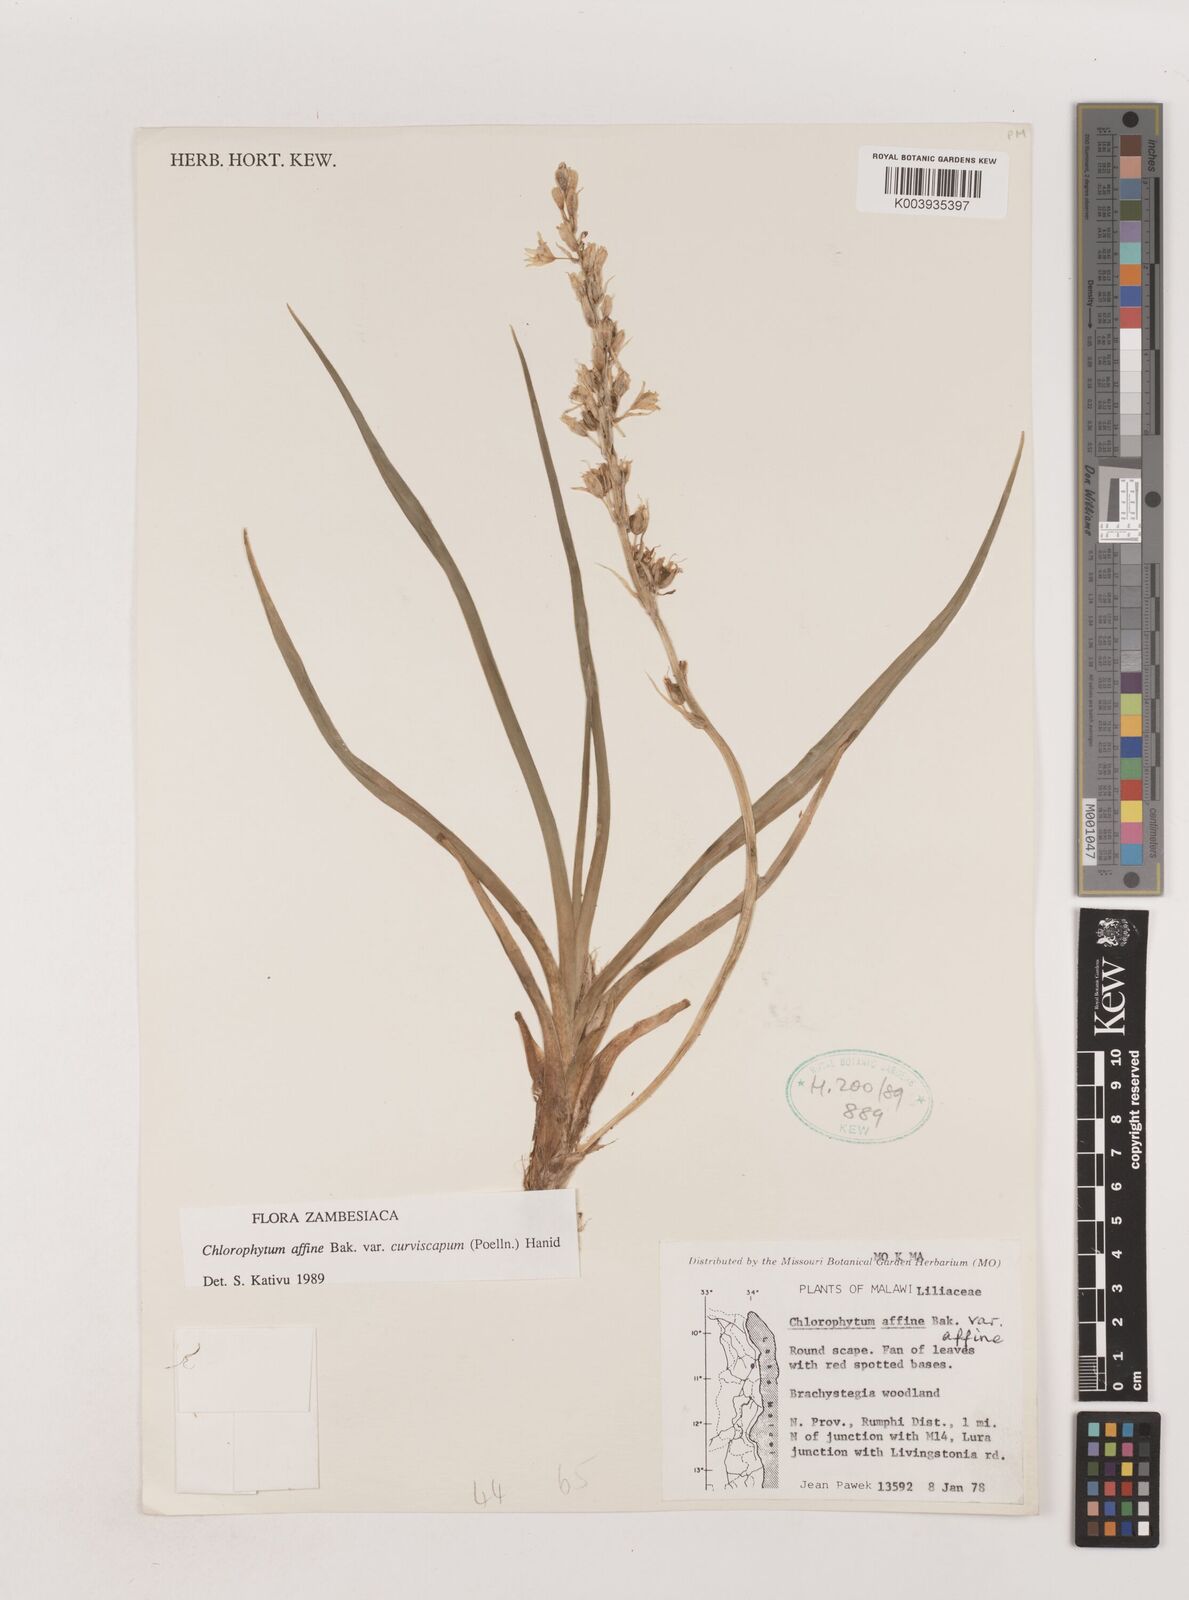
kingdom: Plantae
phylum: Tracheophyta
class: Liliopsida
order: Asparagales
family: Asparagaceae
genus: Chlorophytum
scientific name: Chlorophytum tordense
